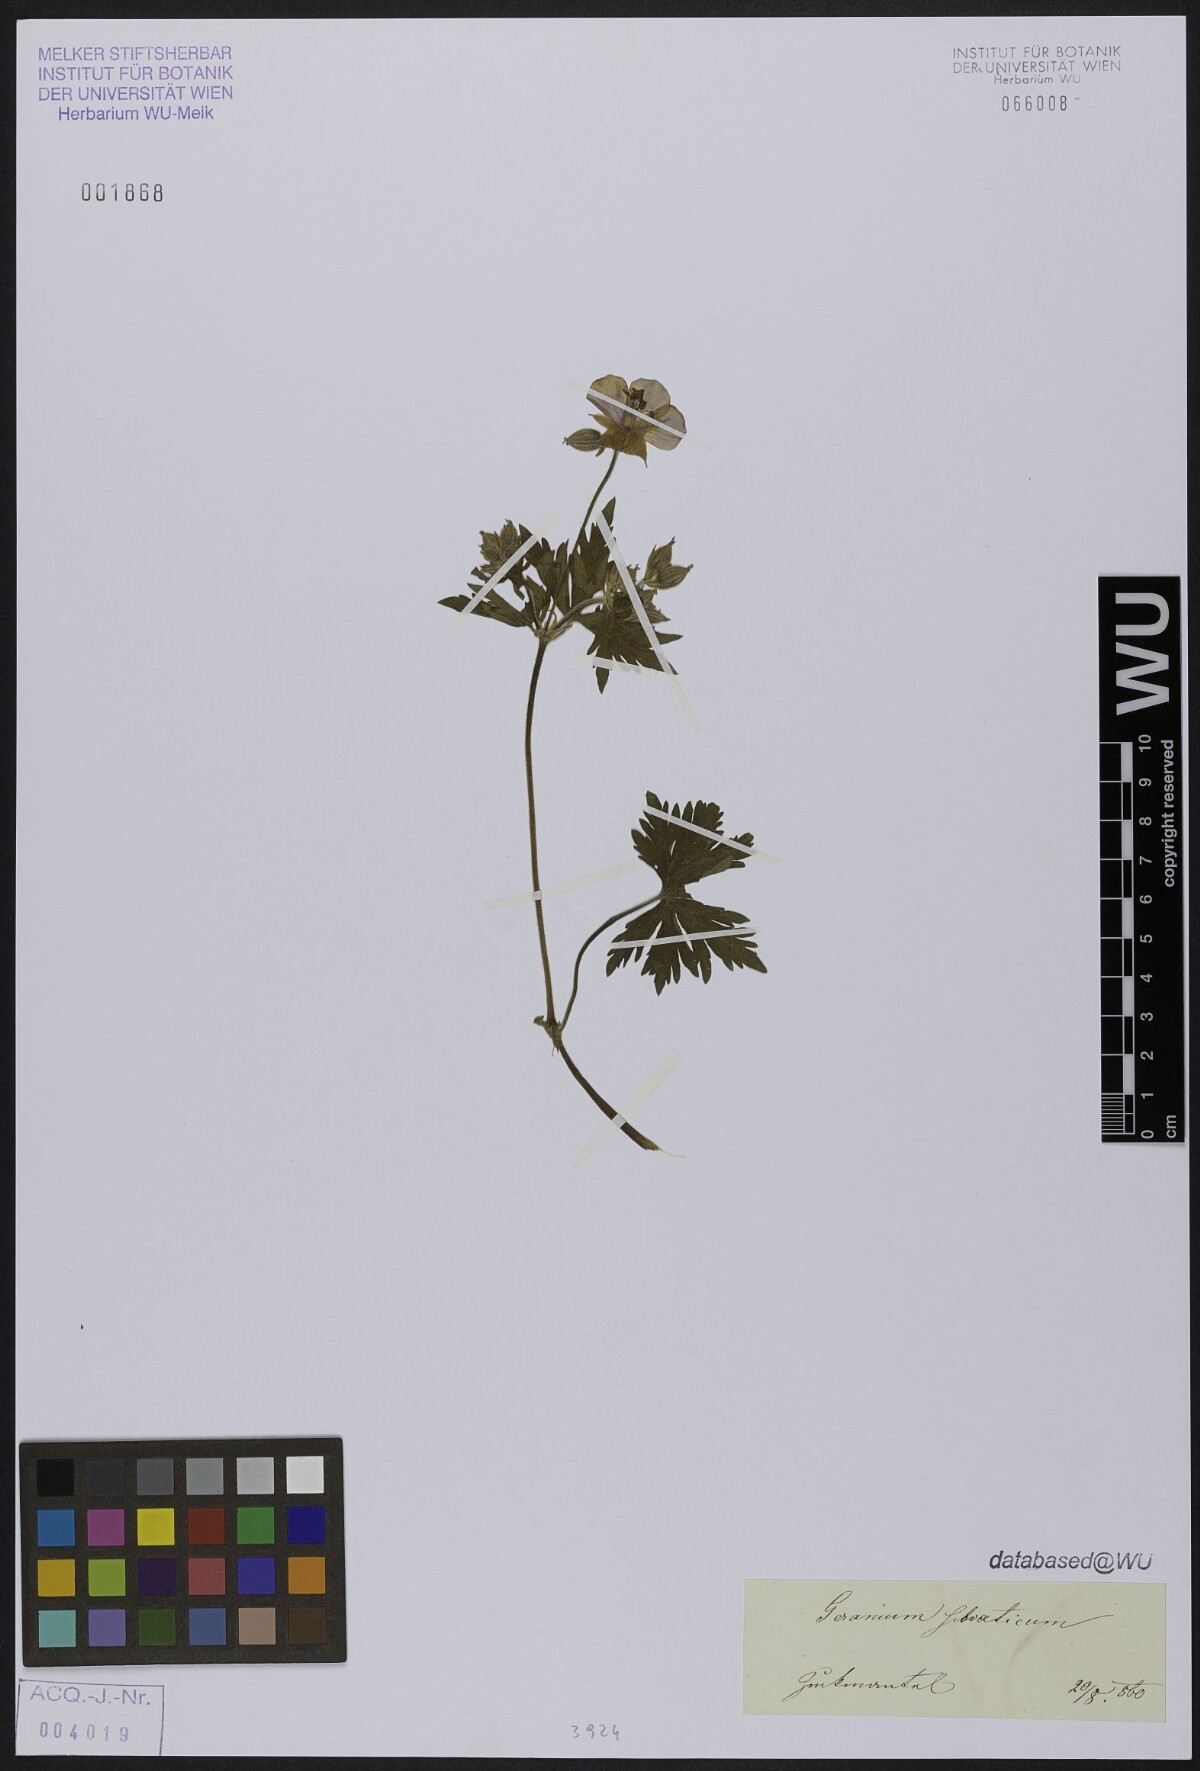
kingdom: Plantae
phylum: Tracheophyta
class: Magnoliopsida
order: Geraniales
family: Geraniaceae
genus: Geranium
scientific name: Geranium sylvaticum
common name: Wood crane's-bill
